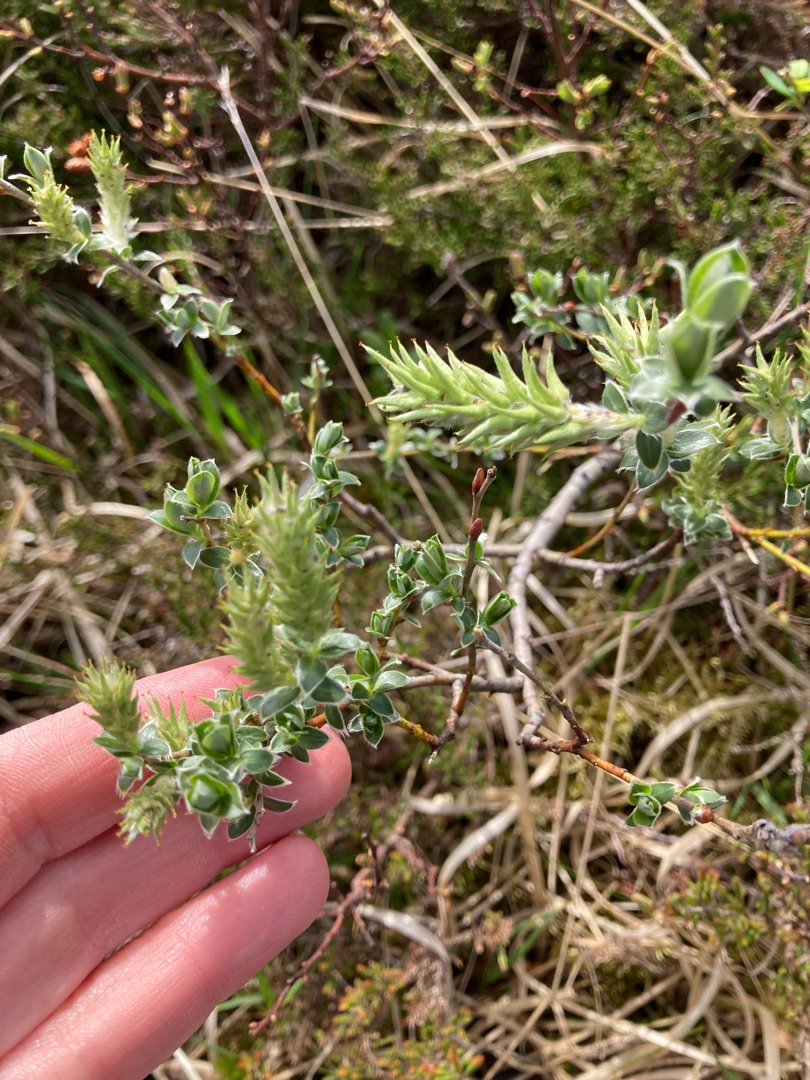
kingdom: Plantae
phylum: Tracheophyta
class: Magnoliopsida
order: Malpighiales
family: Salicaceae
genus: Salix
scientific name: Salix repens
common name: Krybende pil
